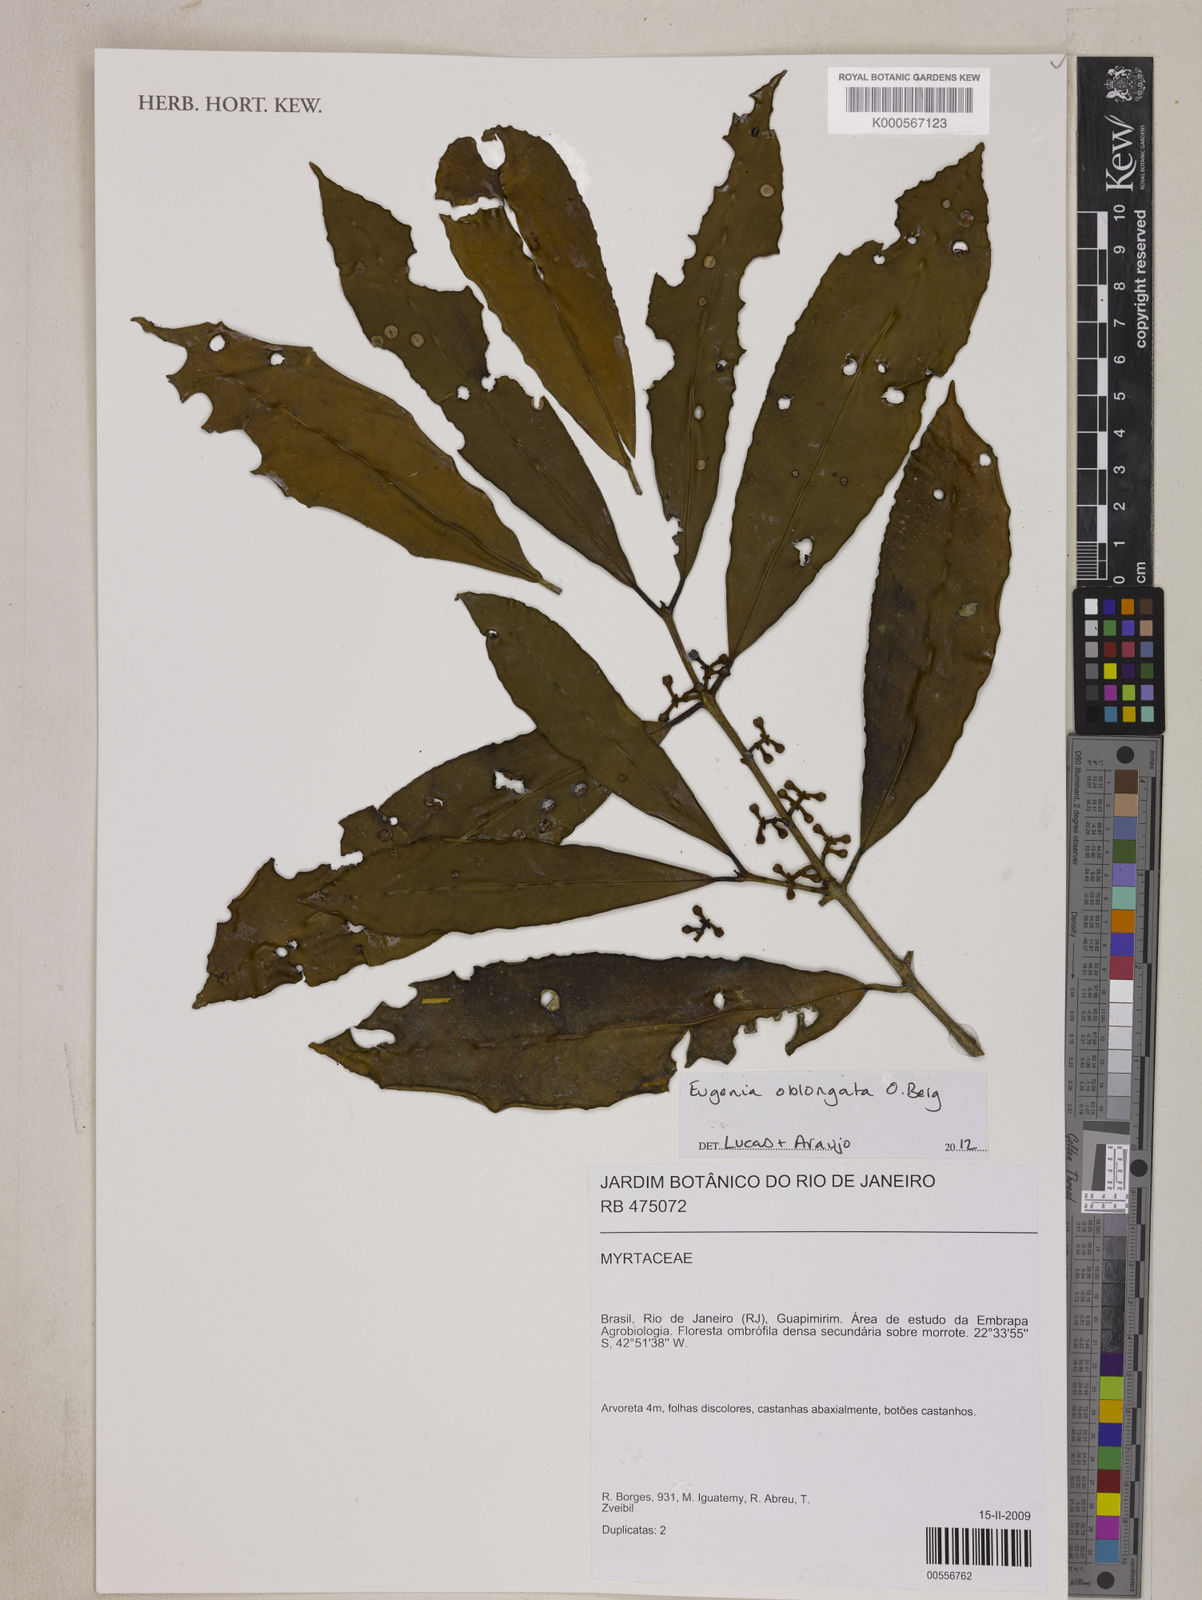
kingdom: Plantae
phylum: Tracheophyta
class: Magnoliopsida
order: Myrtales
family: Myrtaceae
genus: Eugenia
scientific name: Eugenia oblongata
